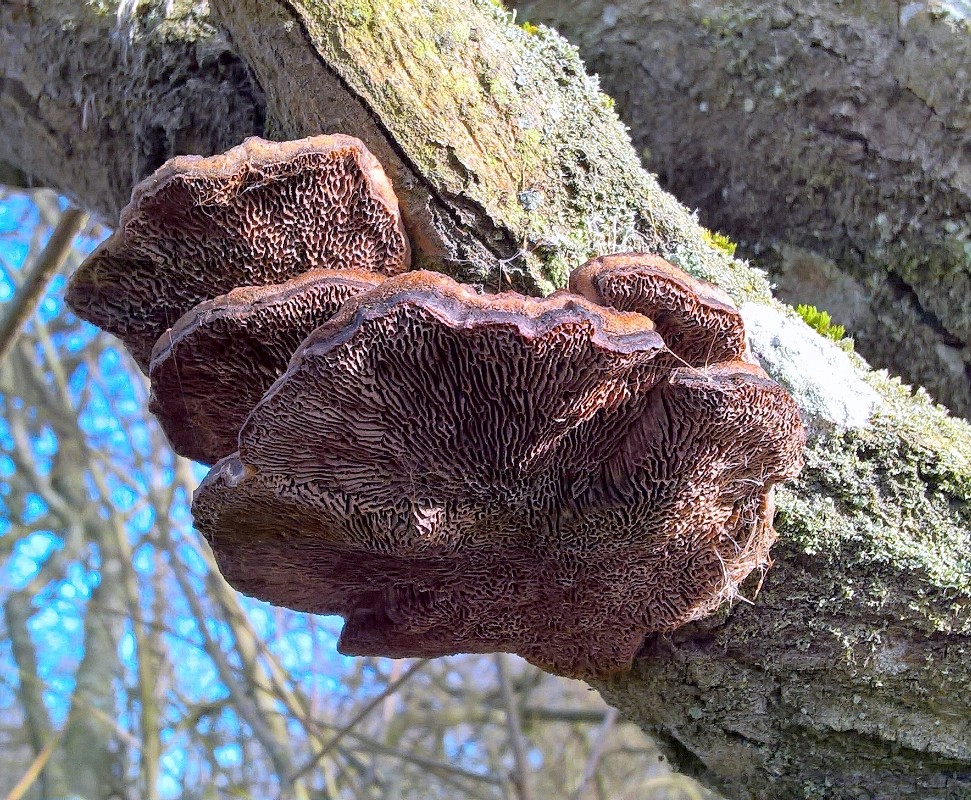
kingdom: Fungi
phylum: Basidiomycota
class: Agaricomycetes
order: Polyporales
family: Polyporaceae
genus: Daedaleopsis
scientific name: Daedaleopsis confragosa
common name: rødmende læderporesvamp
